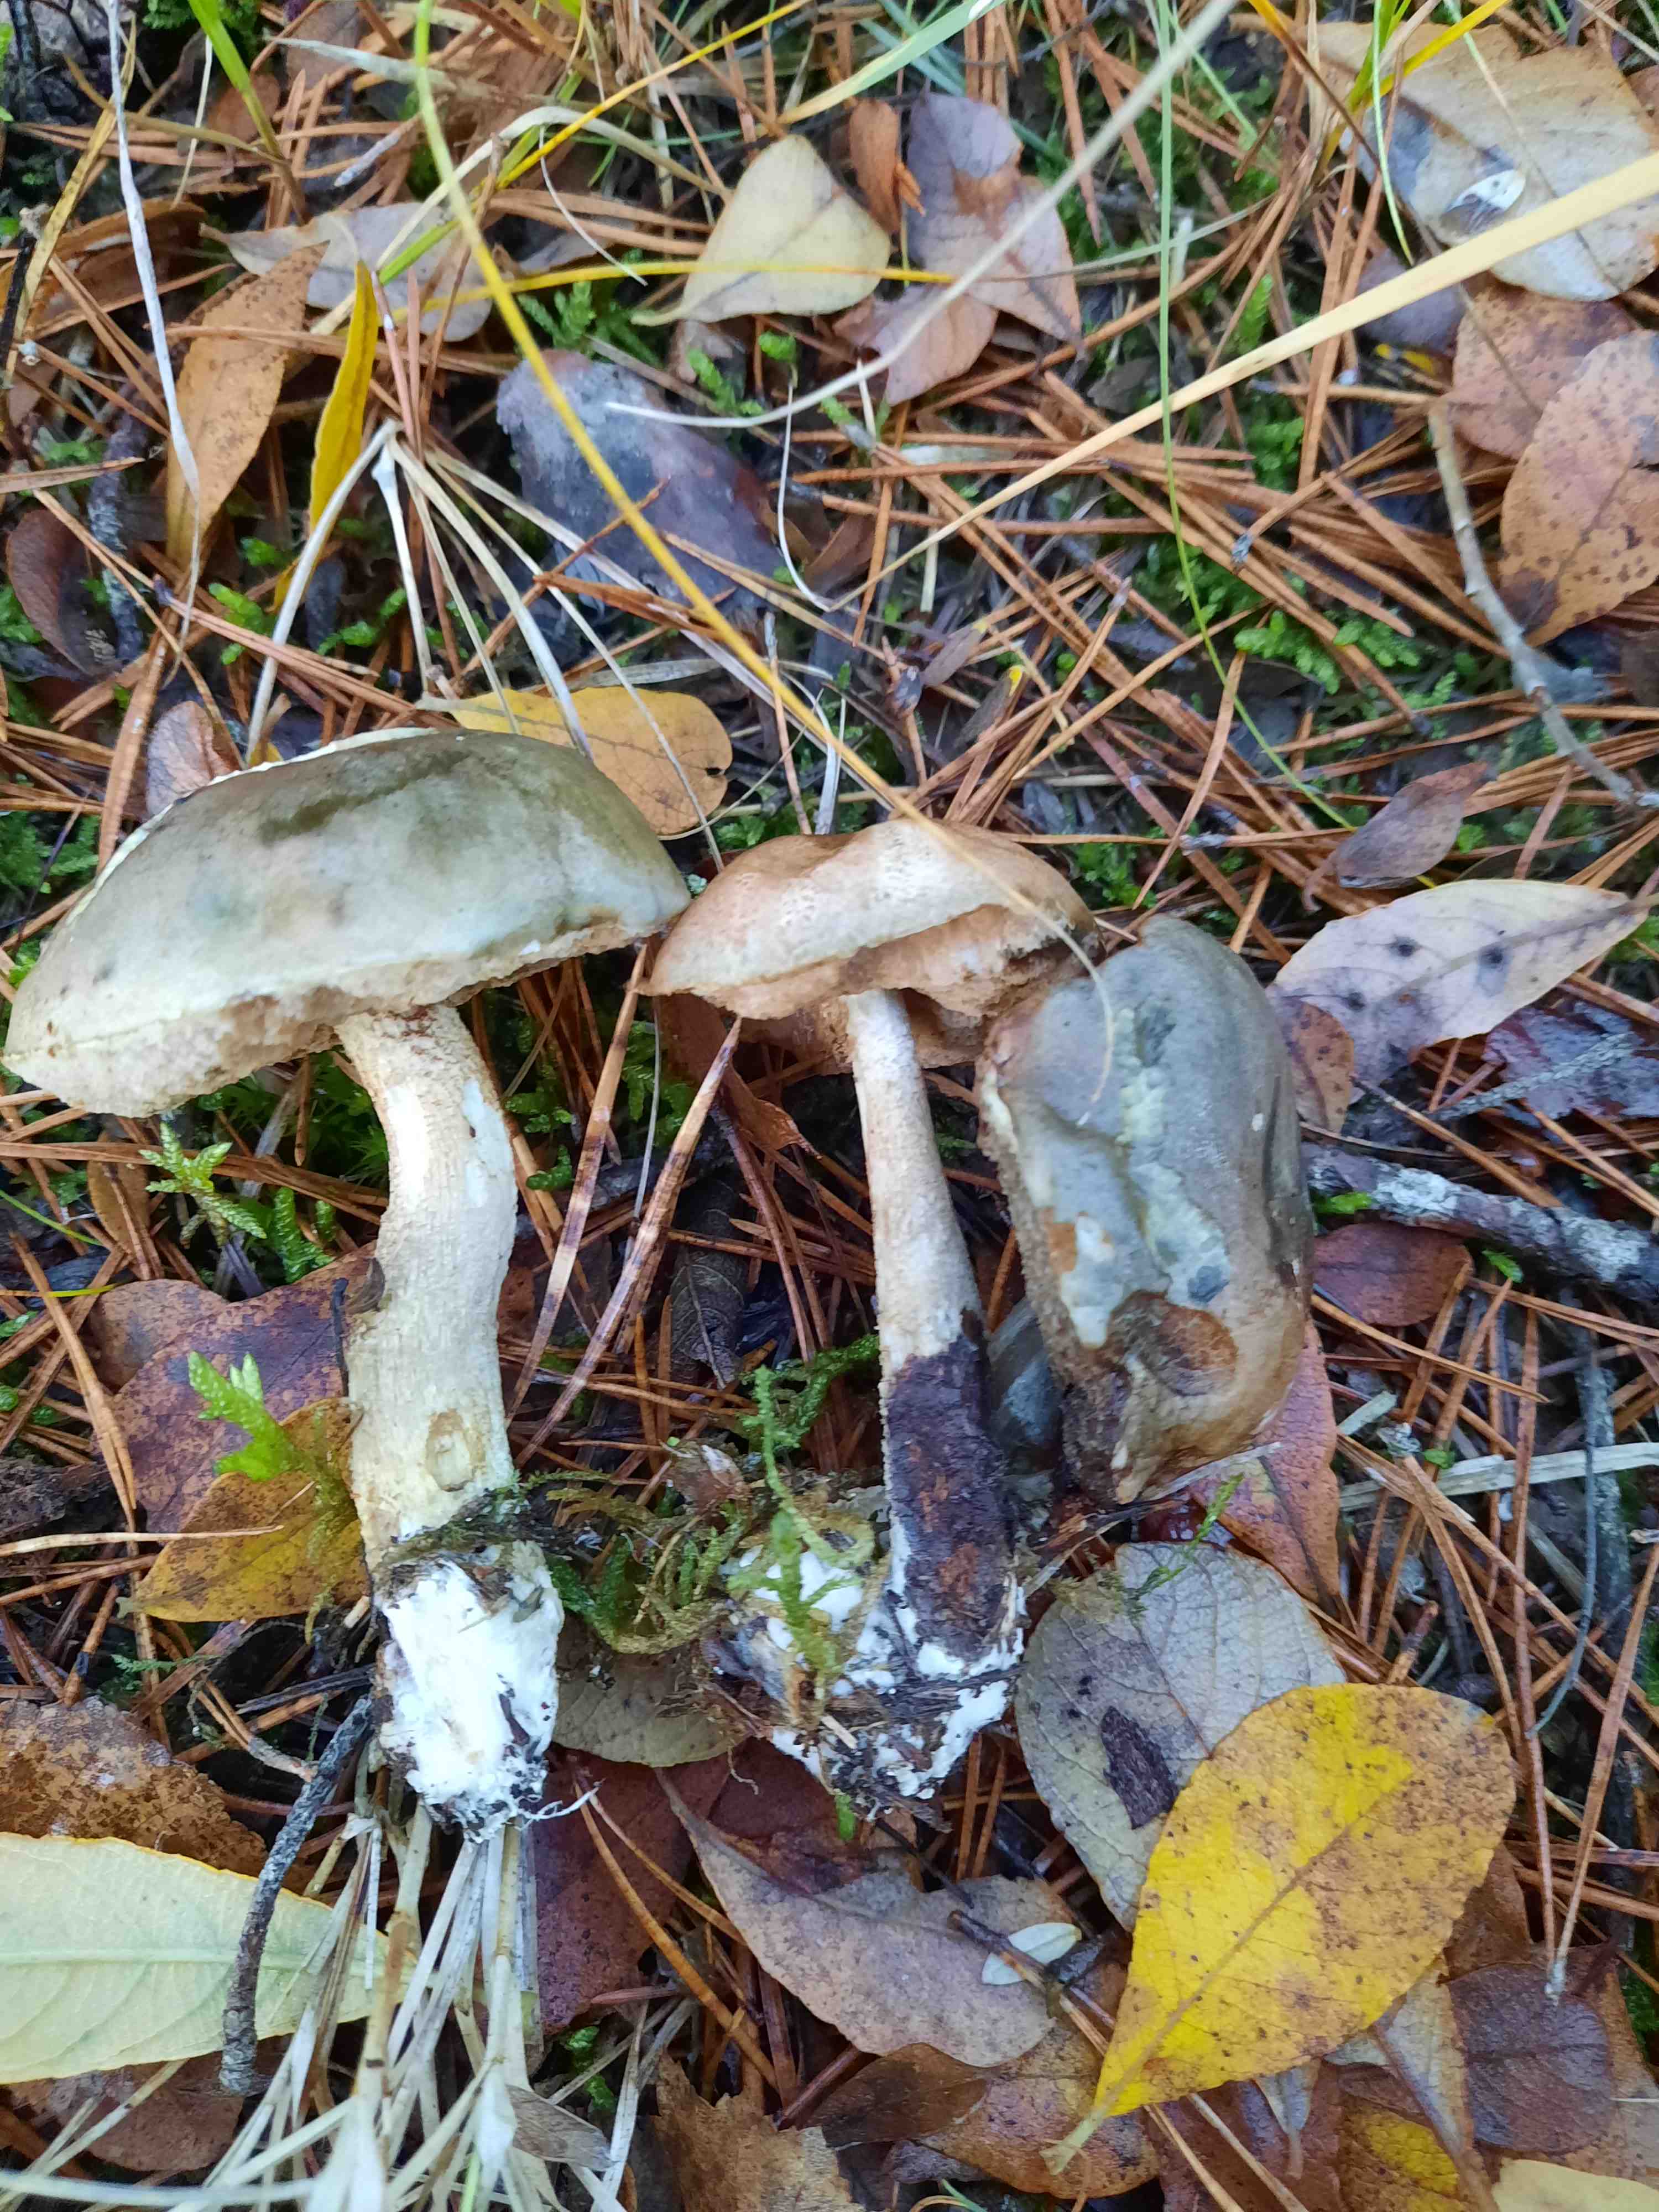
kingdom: Fungi
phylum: Basidiomycota
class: Agaricomycetes
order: Boletales
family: Boletaceae
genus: Leccinum
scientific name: Leccinum scabrum
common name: hvid skælrørhat
